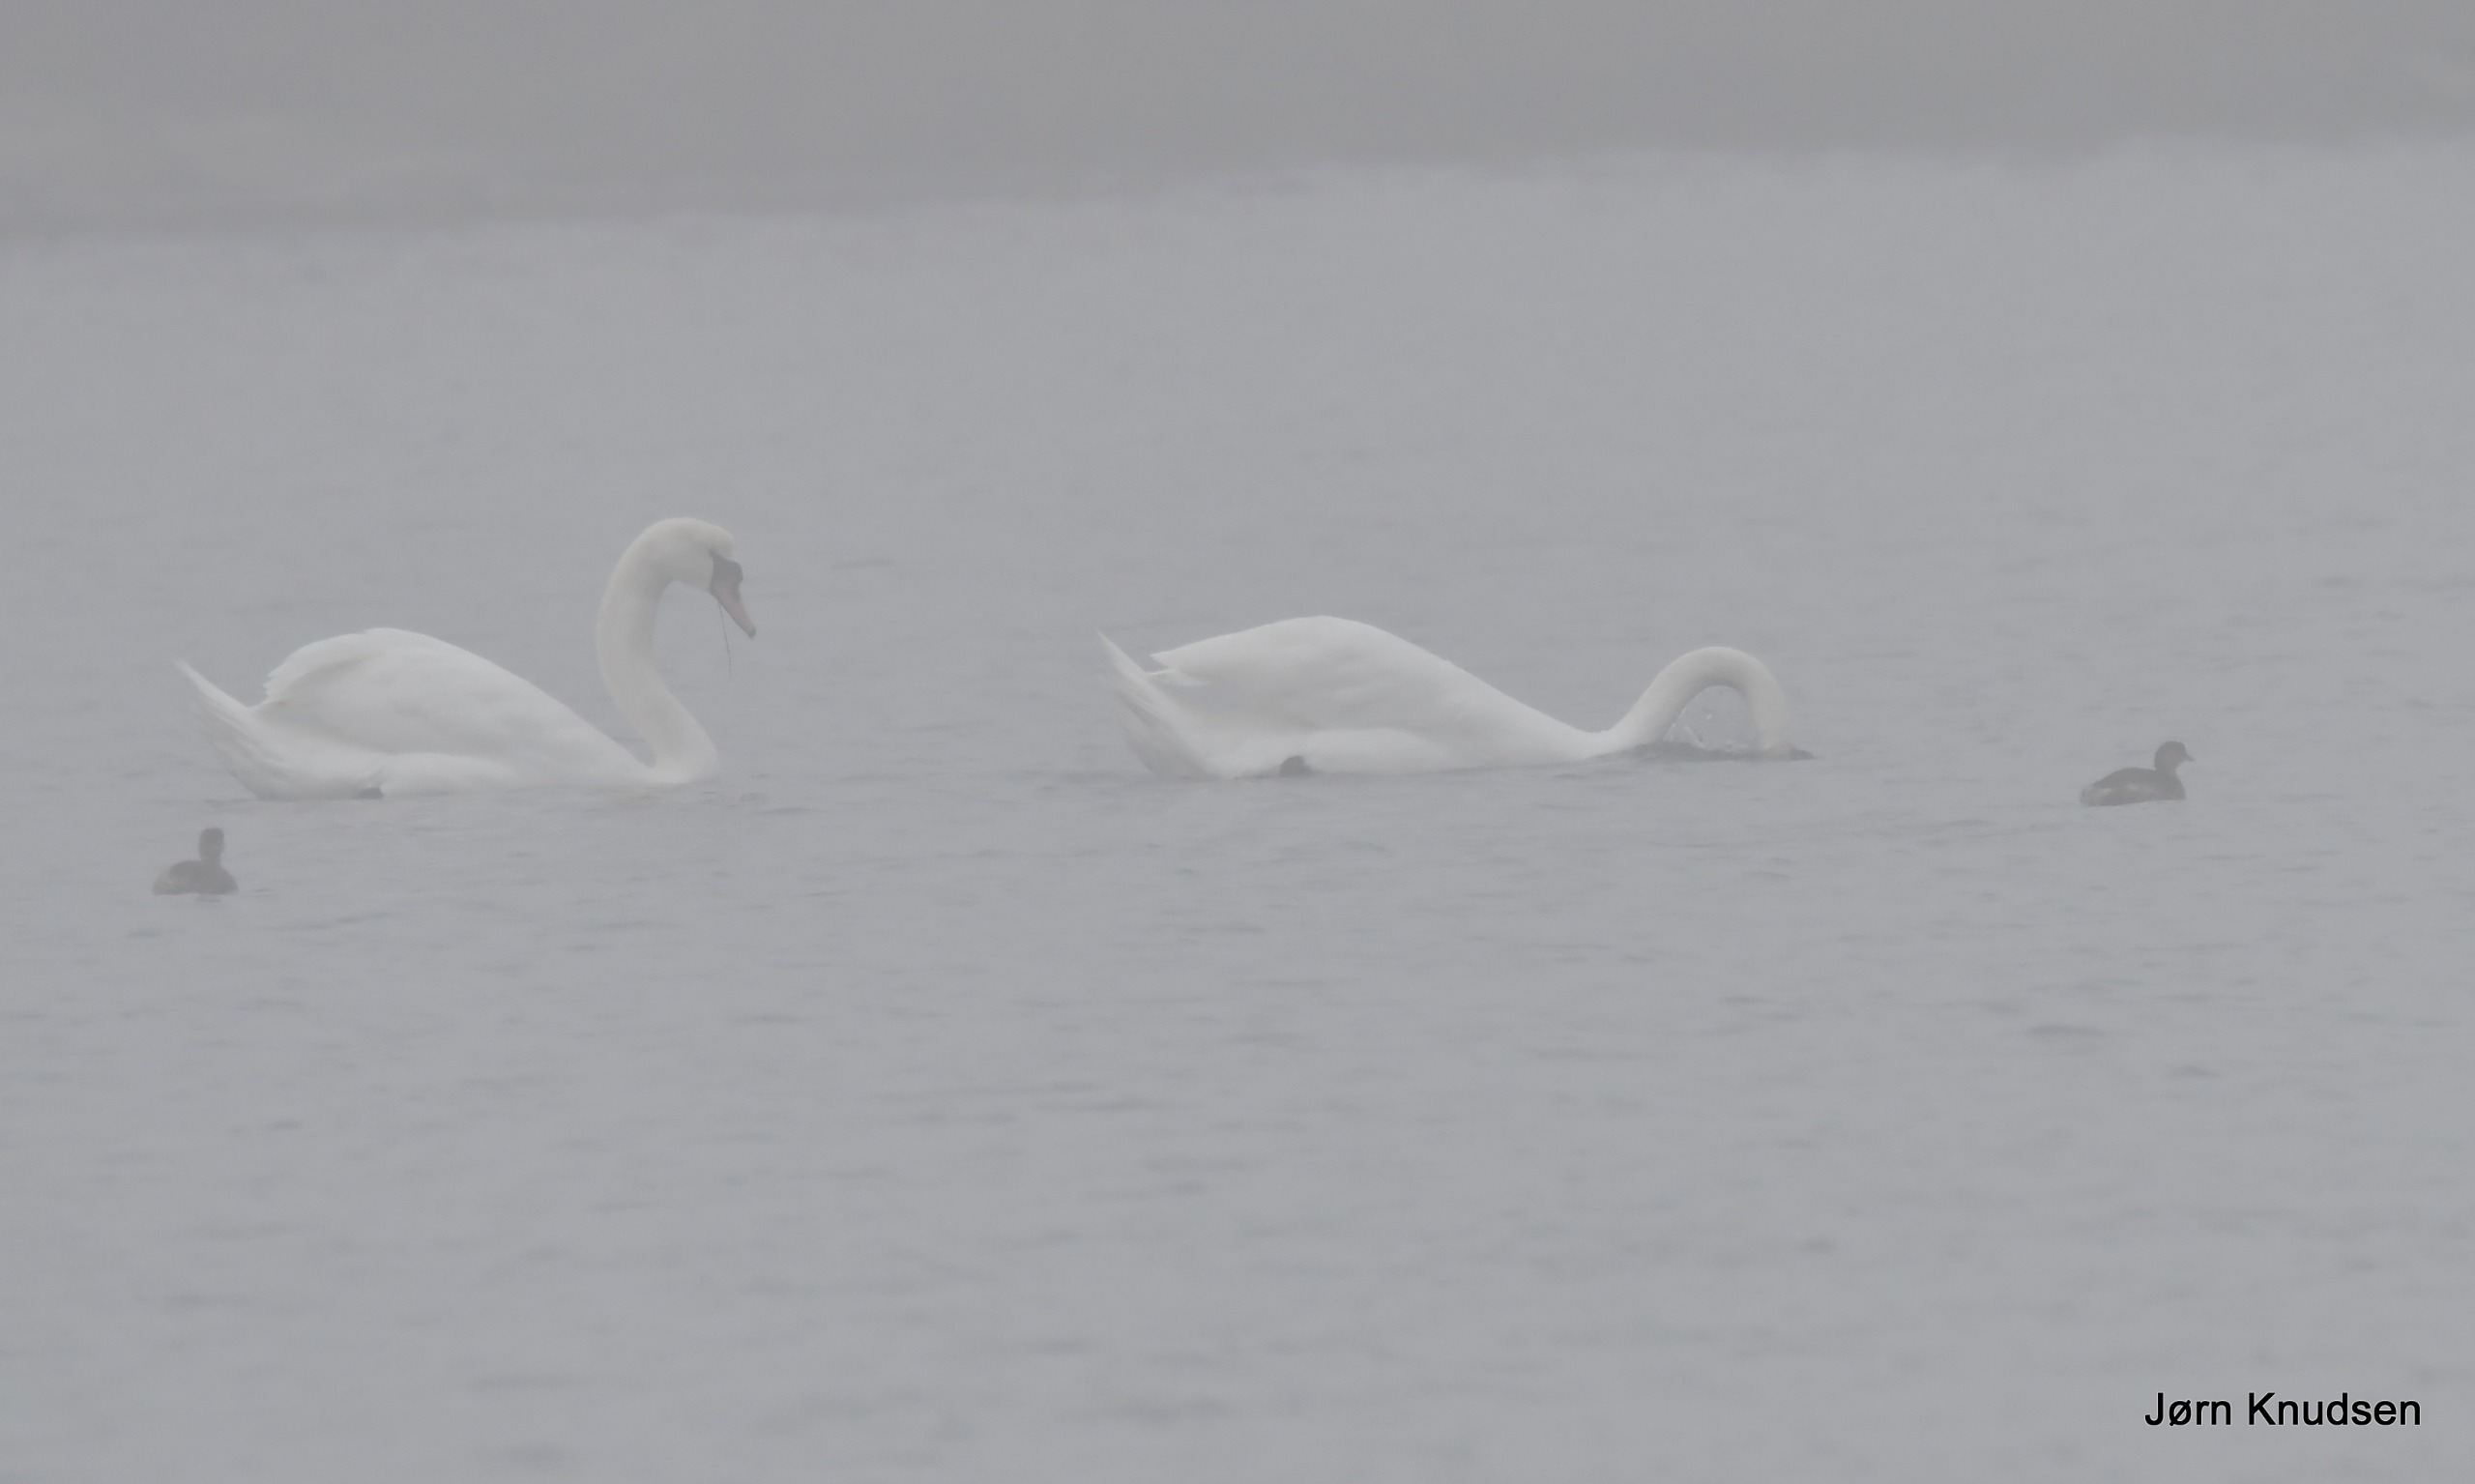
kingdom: Animalia
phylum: Chordata
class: Aves
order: Podicipediformes
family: Podicipedidae
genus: Tachybaptus
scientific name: Tachybaptus ruficollis
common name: Lille lappedykker
